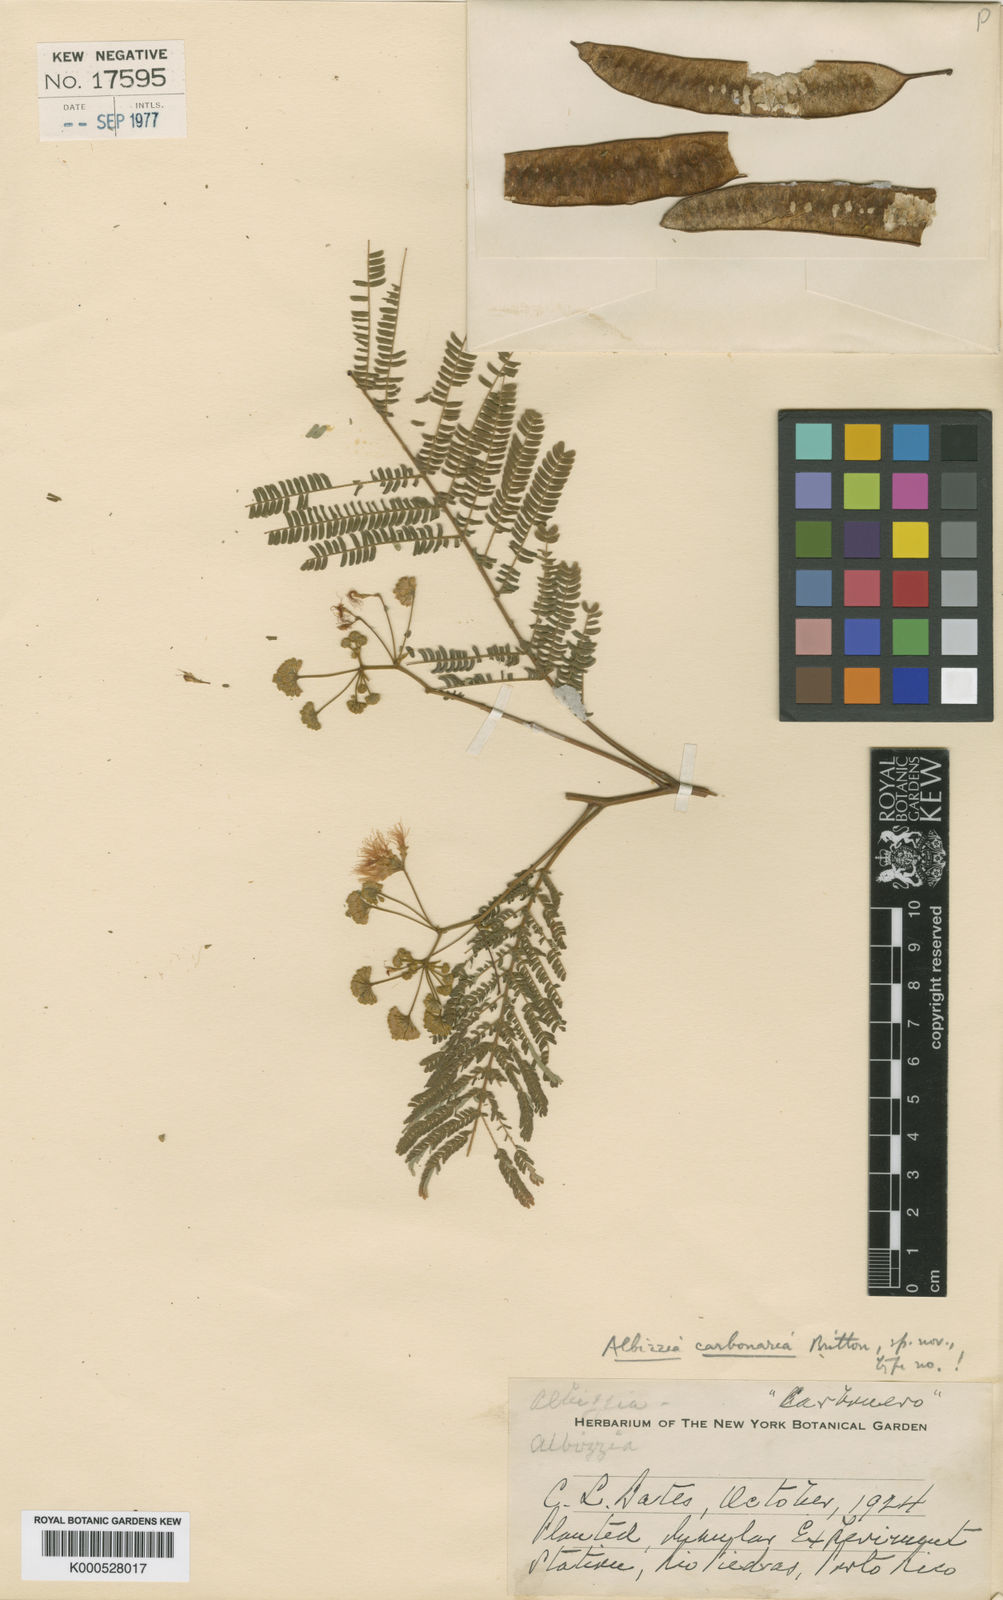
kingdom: Plantae
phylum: Tracheophyta
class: Magnoliopsida
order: Fabales
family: Fabaceae
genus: Albizia
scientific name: Albizia carbonaria
